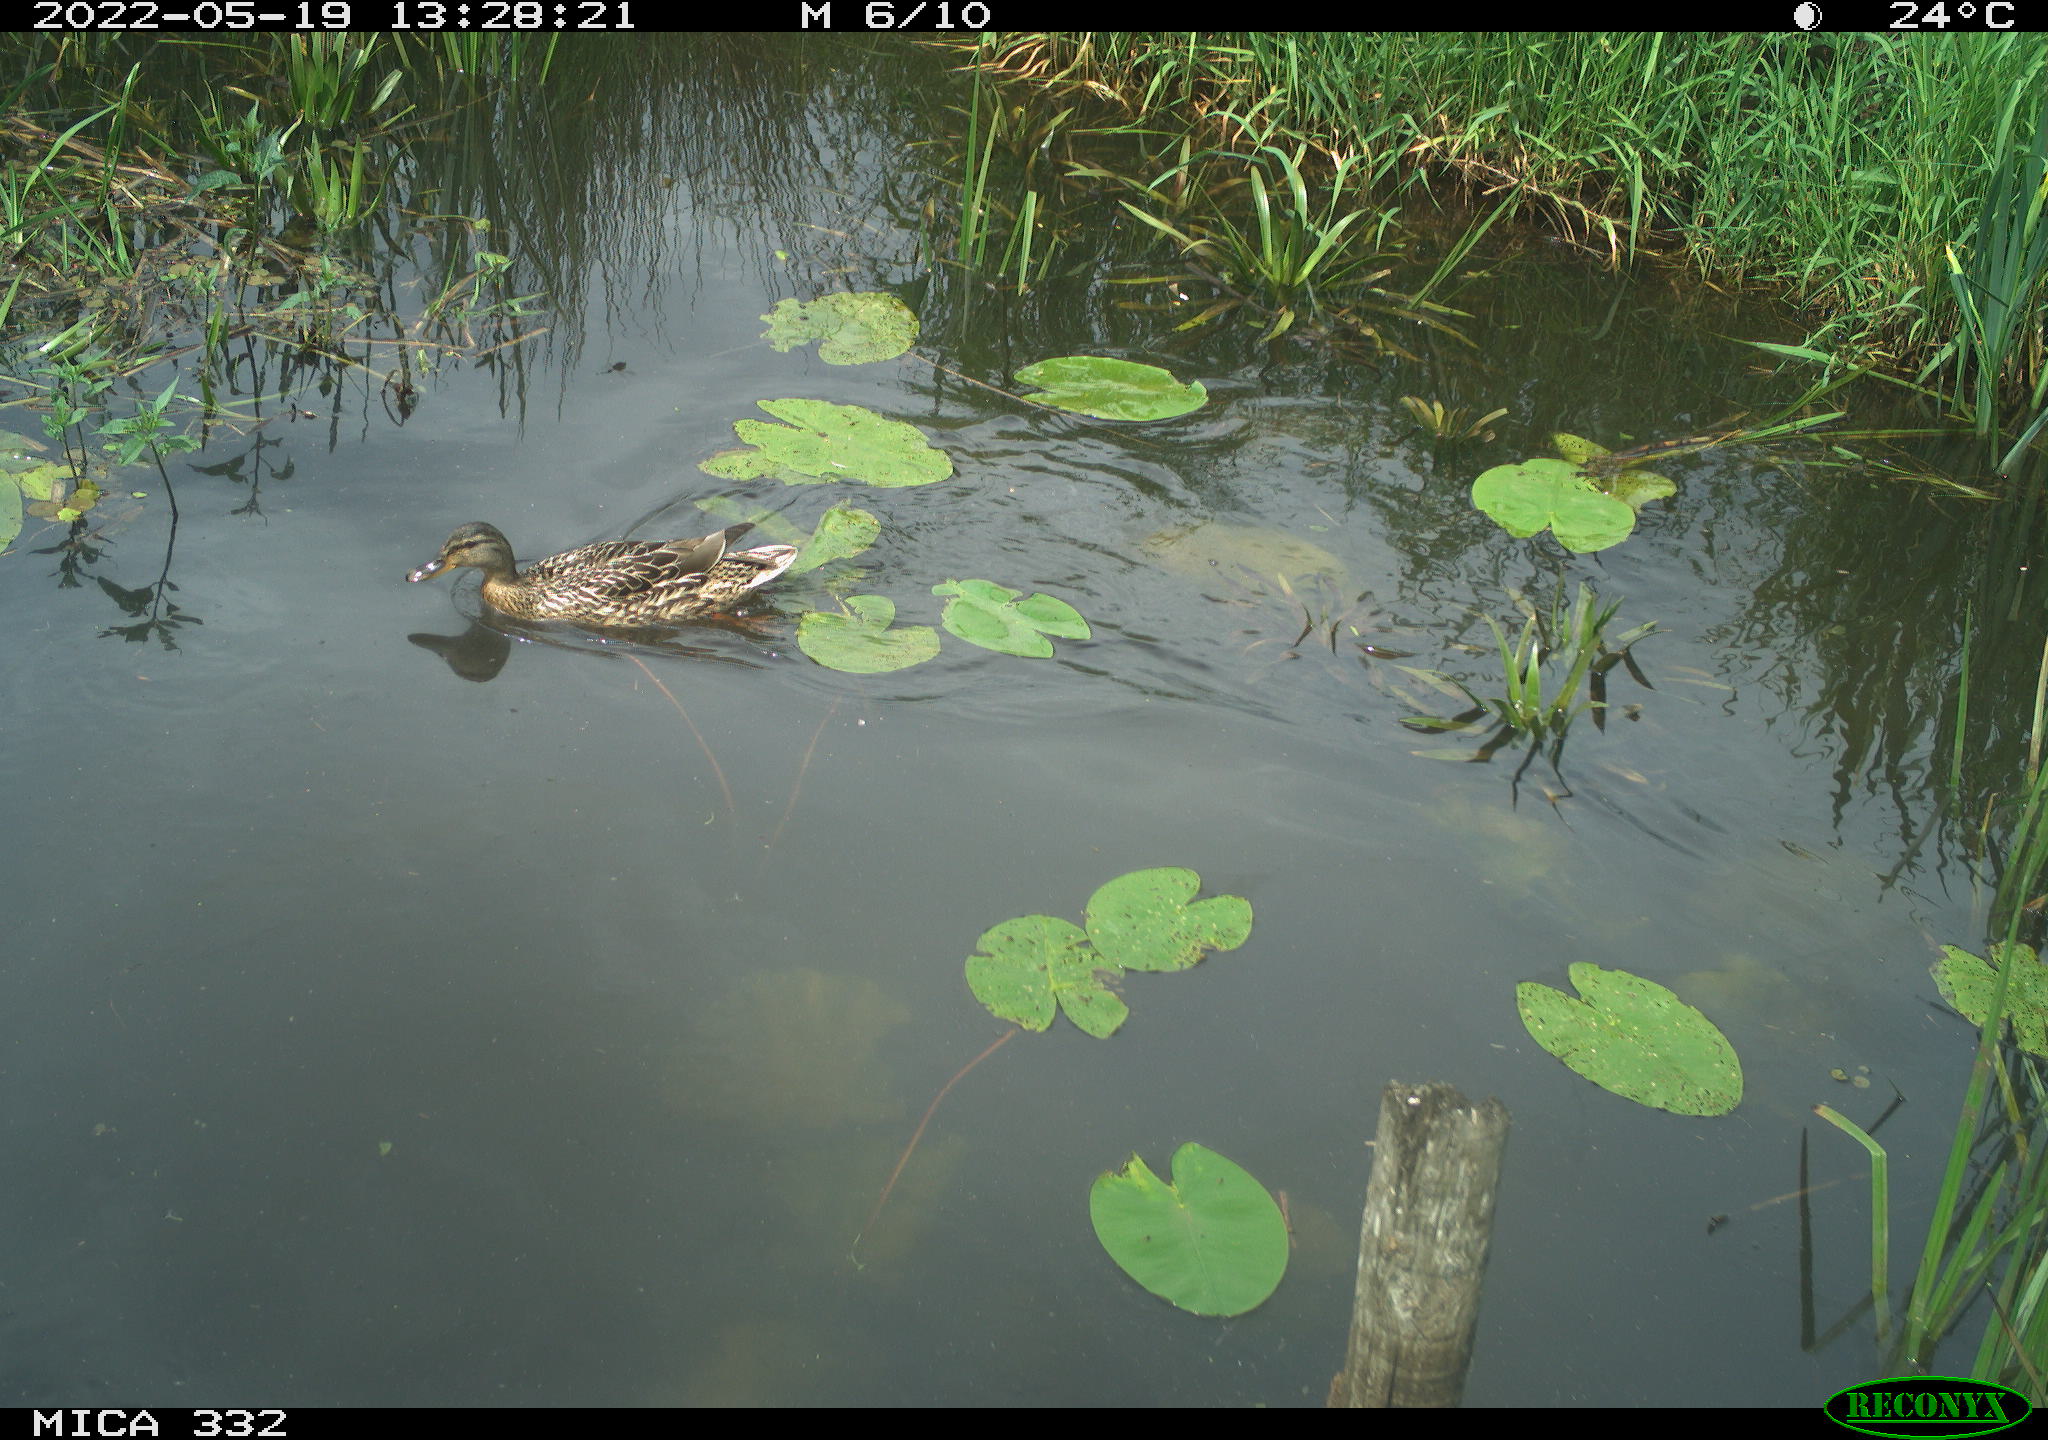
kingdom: Animalia
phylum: Chordata
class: Aves
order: Anseriformes
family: Anatidae
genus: Anas
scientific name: Anas platyrhynchos
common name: Mallard
